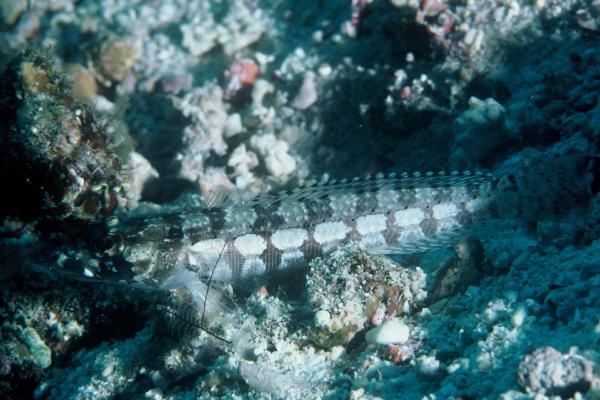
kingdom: Animalia
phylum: Chordata
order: Perciformes
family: Pinguipedidae
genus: Parapercis
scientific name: Parapercis tetracantha
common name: Black-banded grubfish
